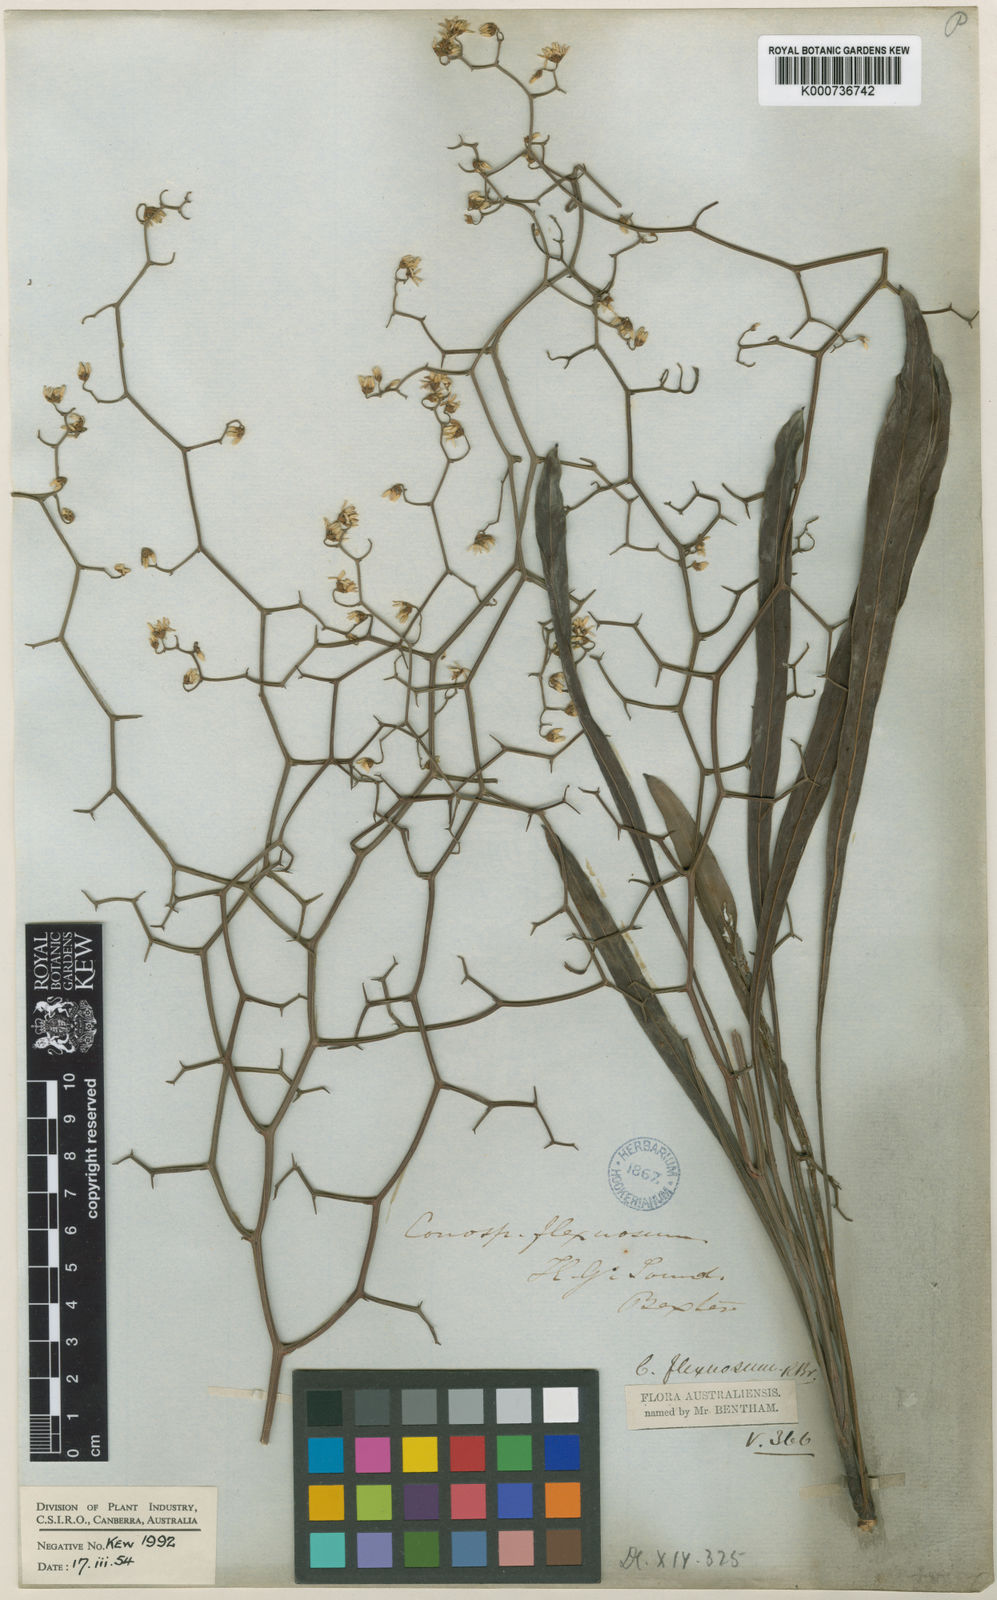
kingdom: Plantae
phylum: Tracheophyta
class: Magnoliopsida
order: Proteales
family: Proteaceae
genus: Conospermum
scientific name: Conospermum flexuosum
